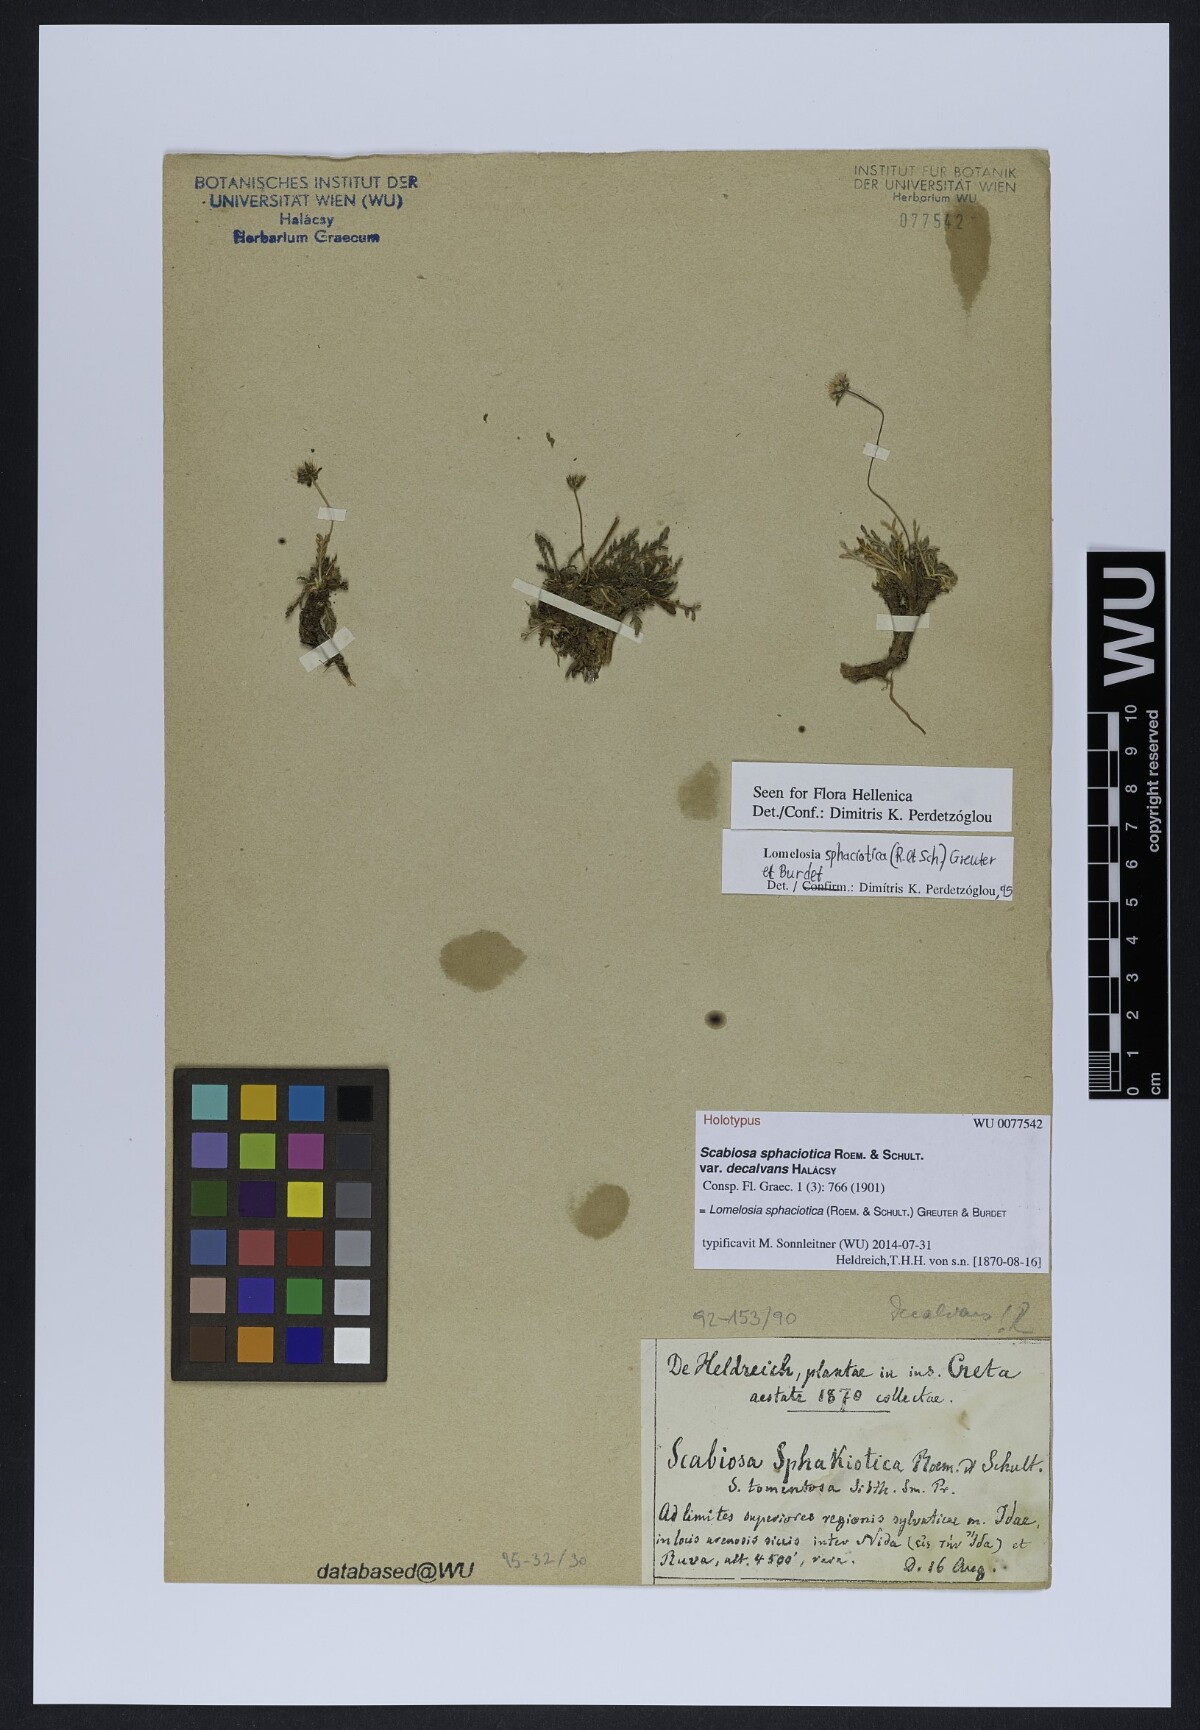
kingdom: Plantae
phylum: Tracheophyta
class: Magnoliopsida
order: Dipsacales
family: Caprifoliaceae
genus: Lomelosia
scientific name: Lomelosia sphaciotica
